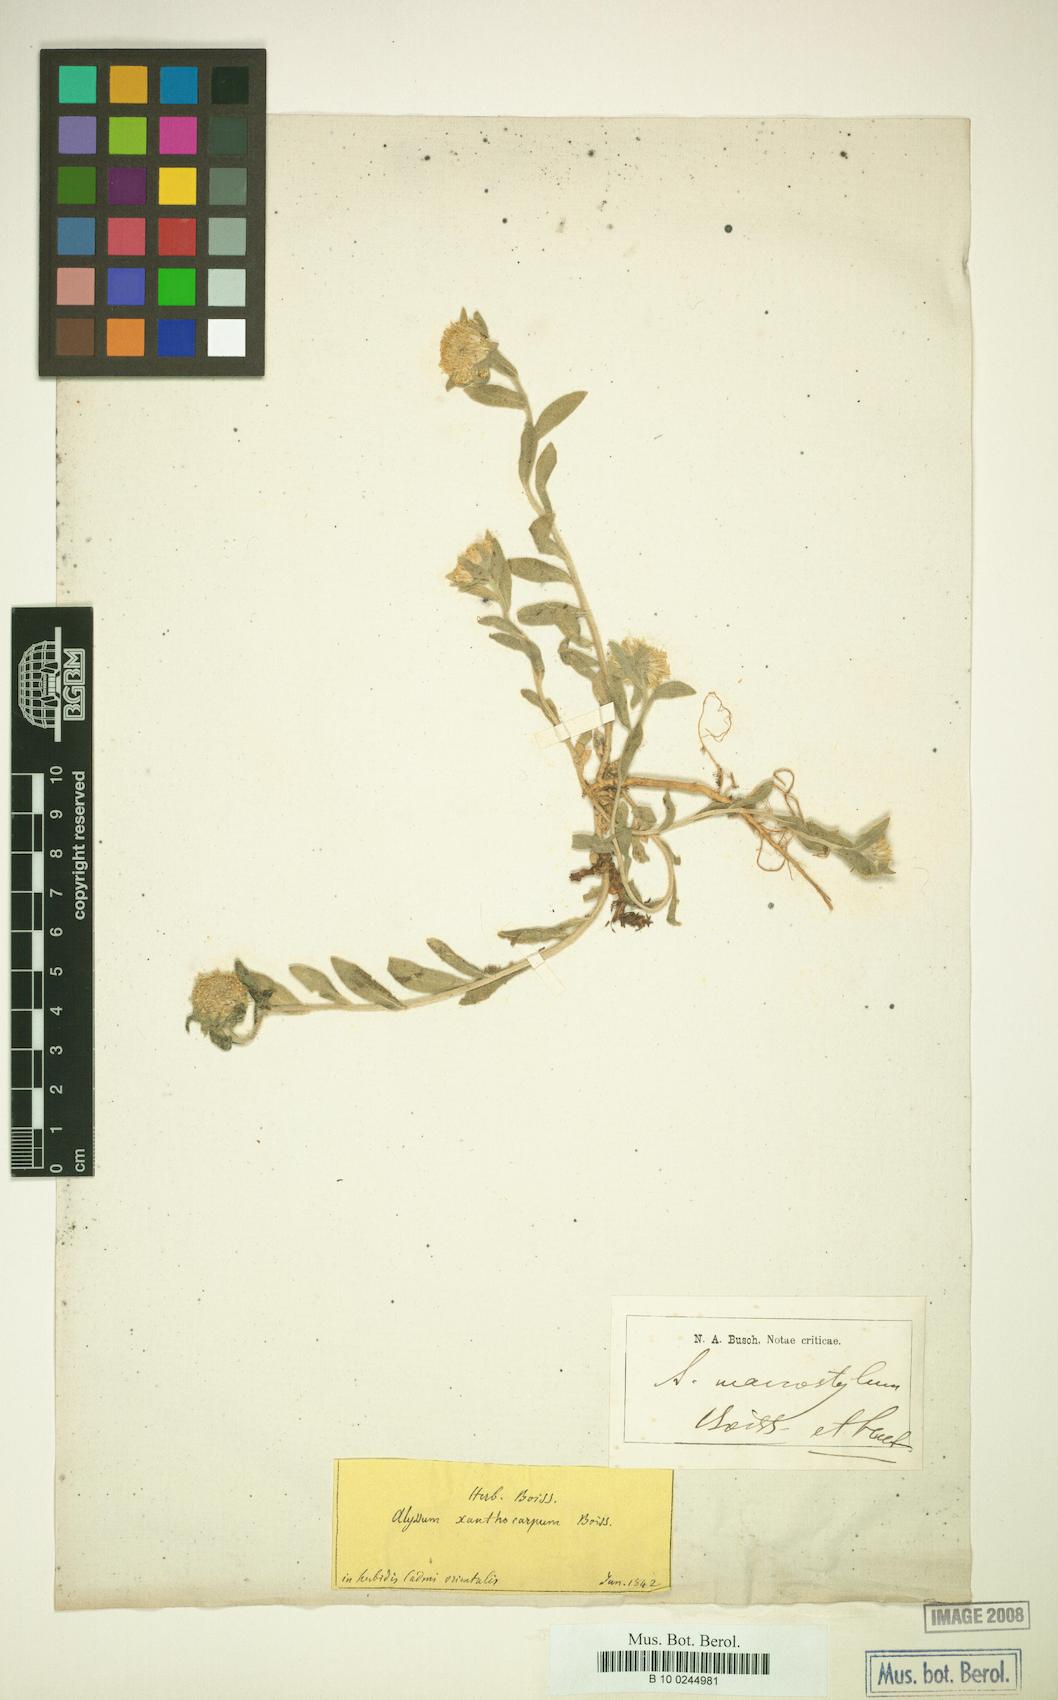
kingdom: Plantae
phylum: Tracheophyta
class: Magnoliopsida
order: Brassicales
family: Brassicaceae
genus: Alyssum
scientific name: Alyssum xanthocarpum
